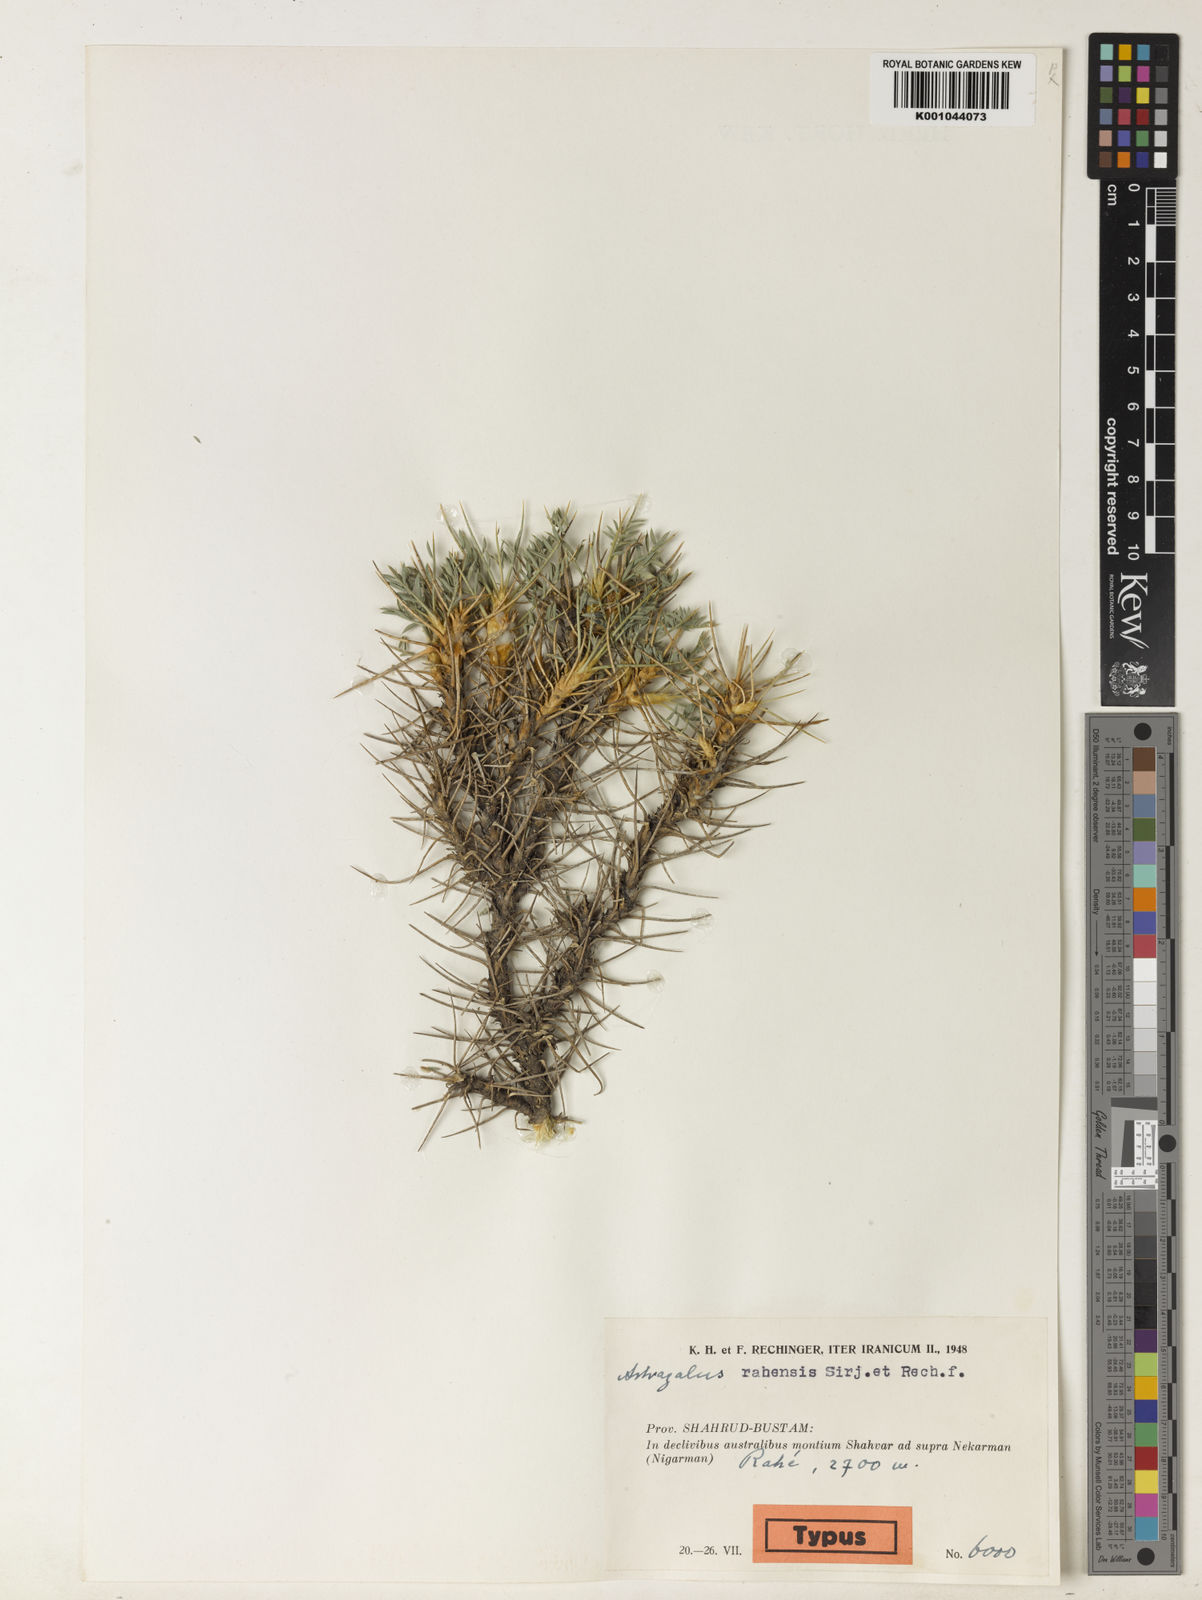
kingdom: Plantae
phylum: Tracheophyta
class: Magnoliopsida
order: Fabales
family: Fabaceae
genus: Astragalus
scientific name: Astragalus
